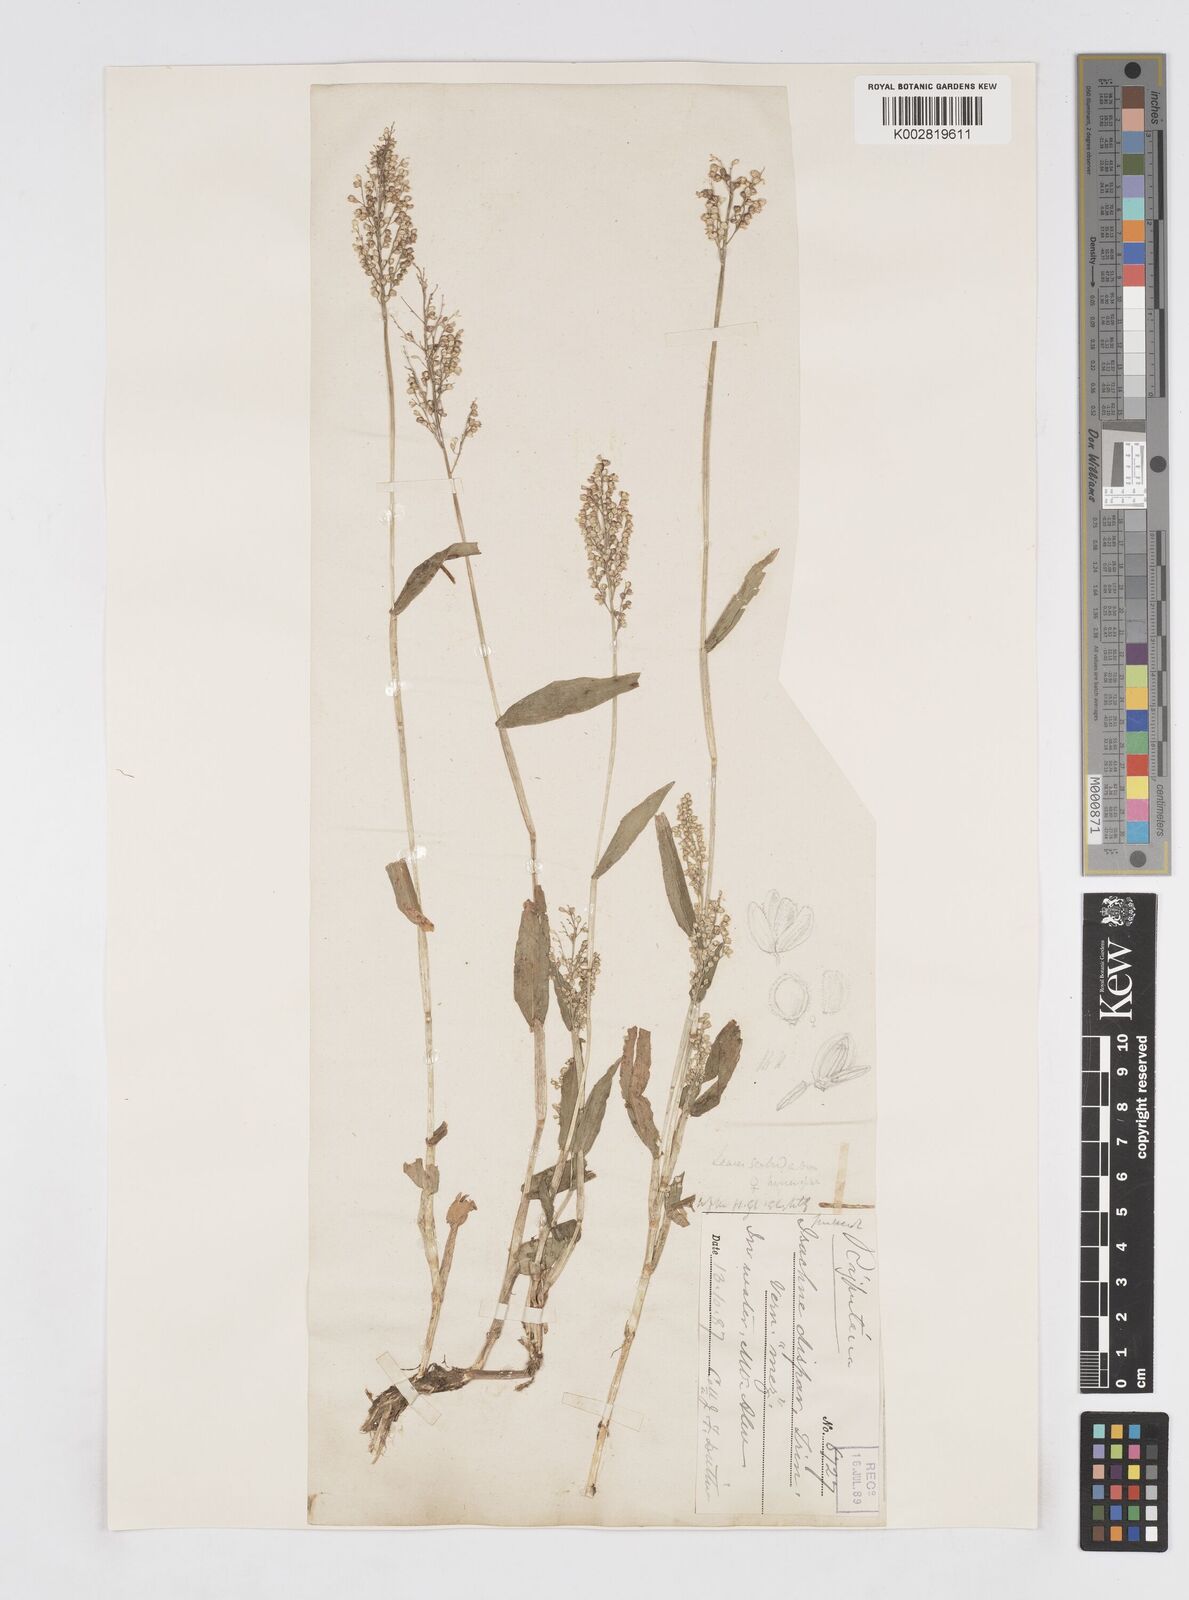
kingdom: Plantae
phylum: Tracheophyta
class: Liliopsida
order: Poales
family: Poaceae
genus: Isachne
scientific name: Isachne globosa
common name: Swamp millet
